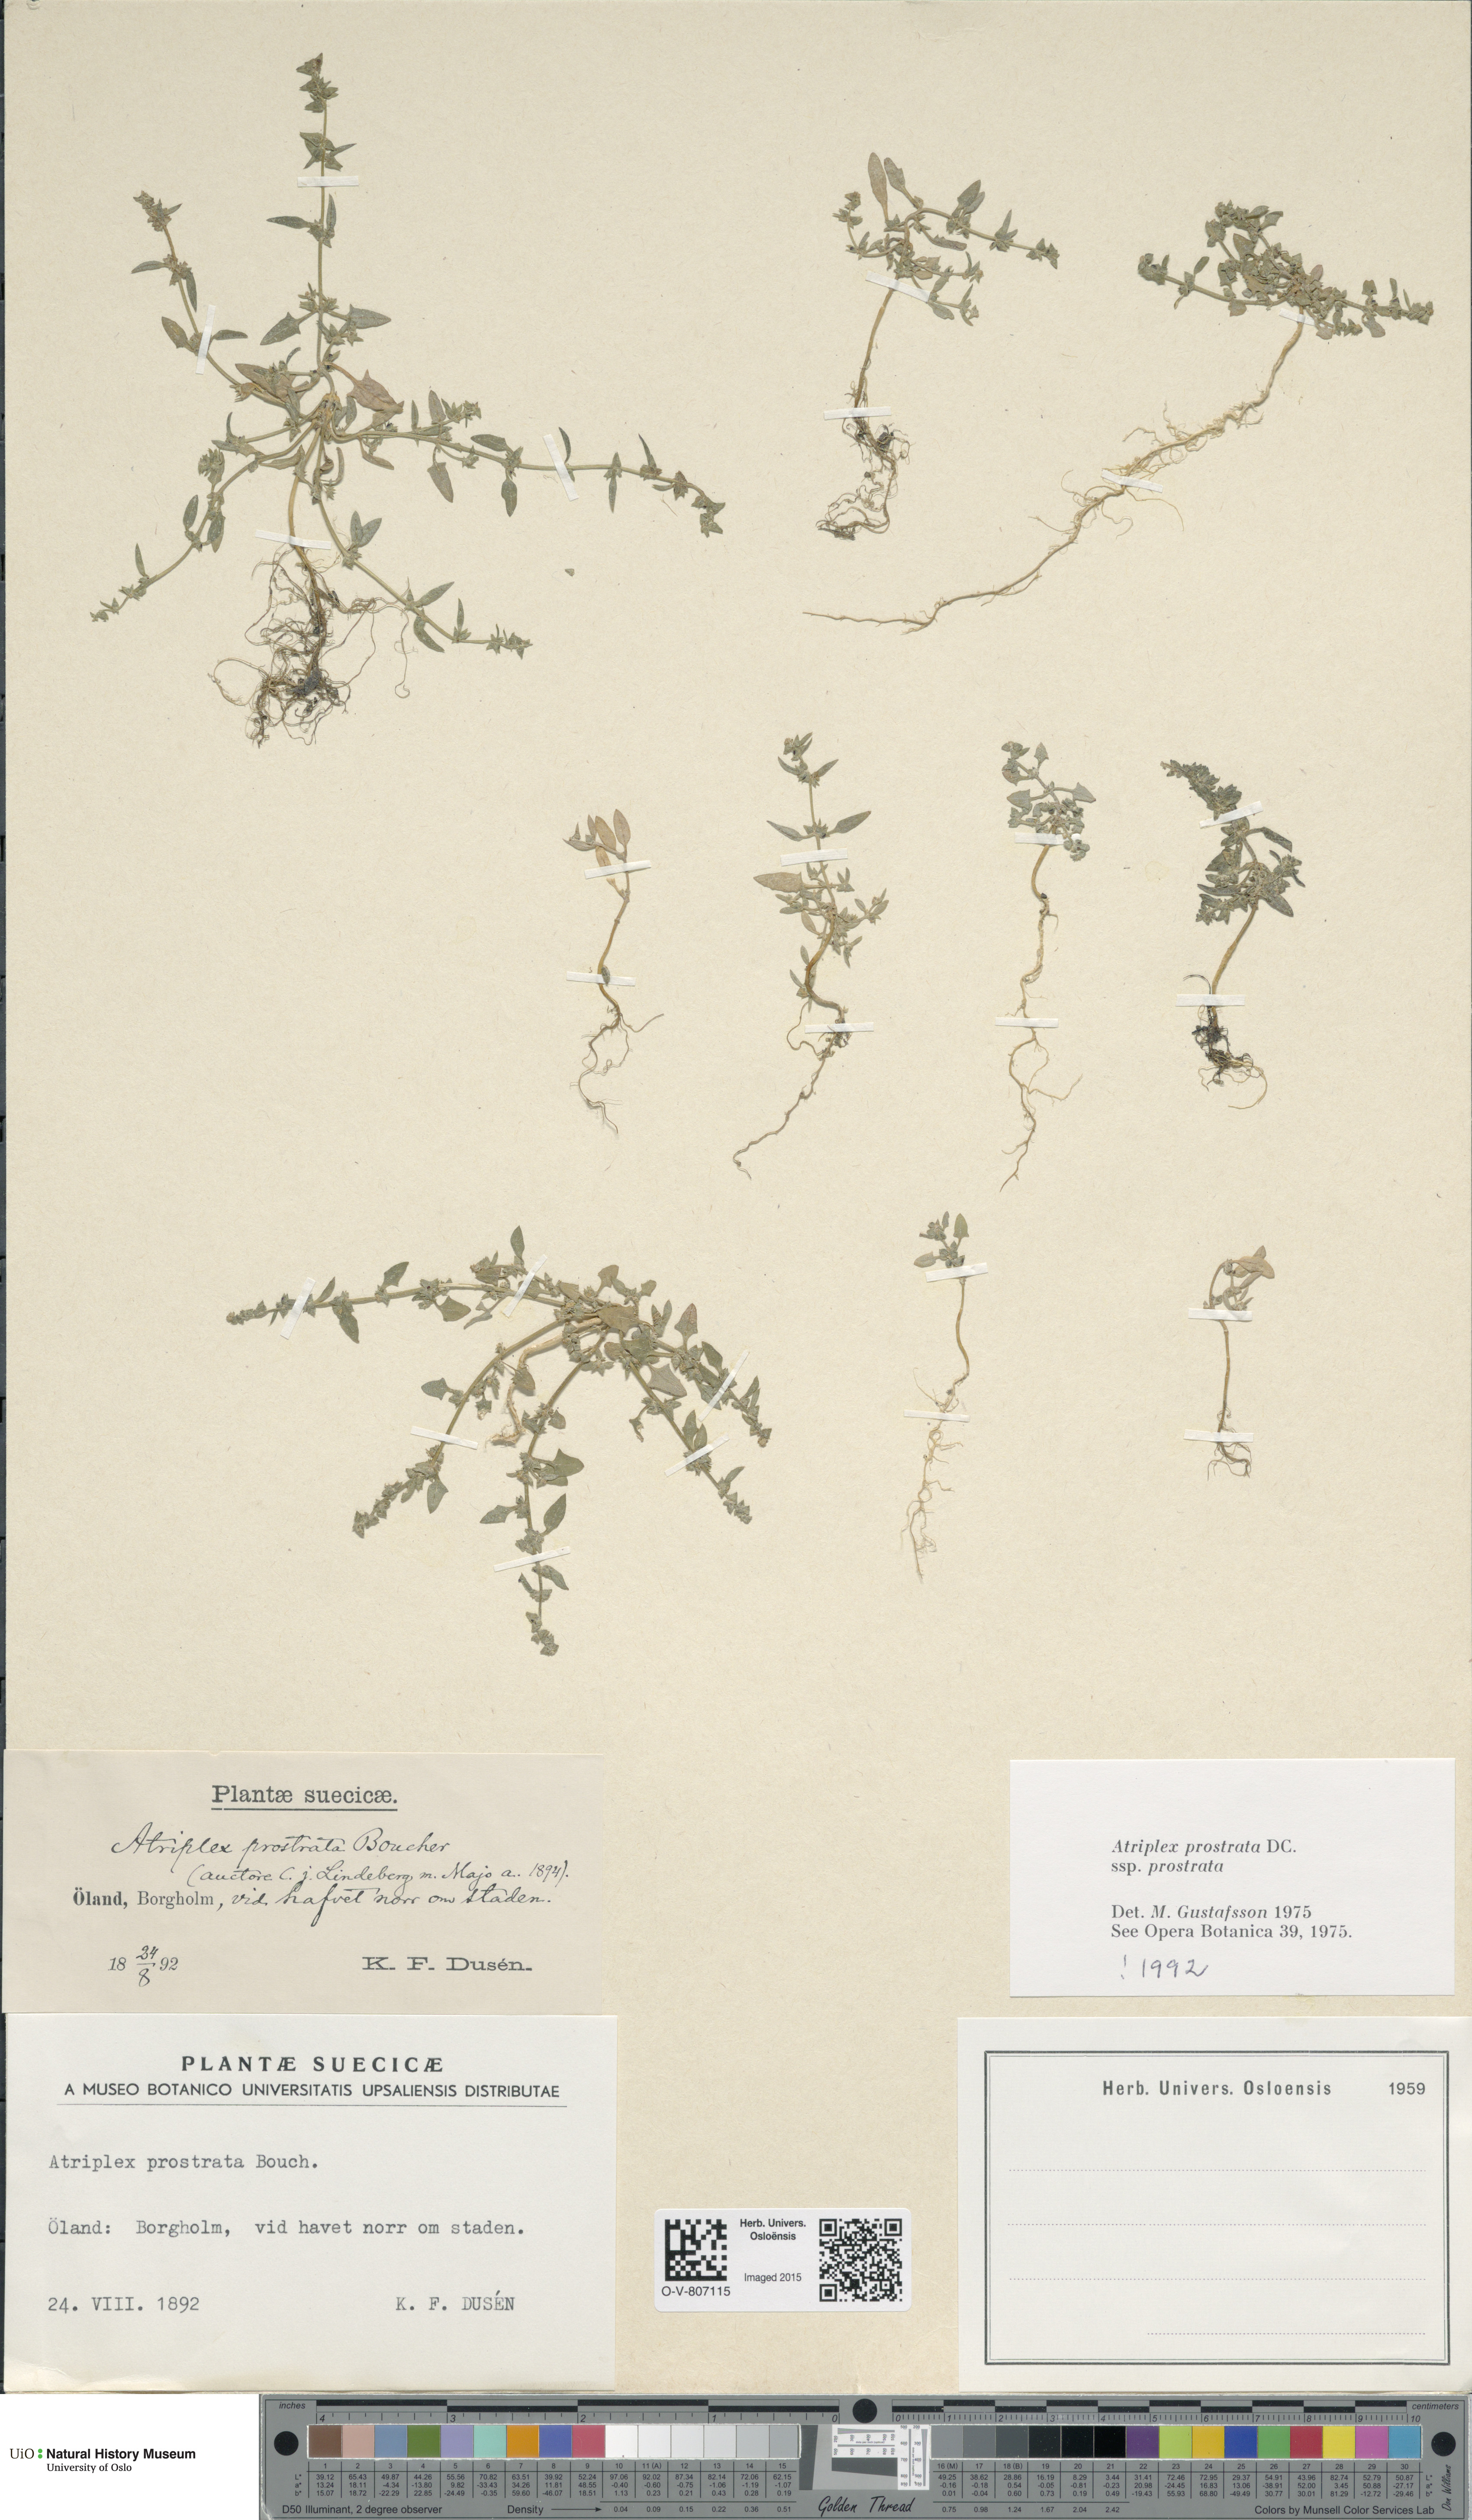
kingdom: Plantae
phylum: Tracheophyta
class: Magnoliopsida
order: Caryophyllales
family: Amaranthaceae
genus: Atriplex
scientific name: Atriplex prostrata
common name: Spear-leaved orache
